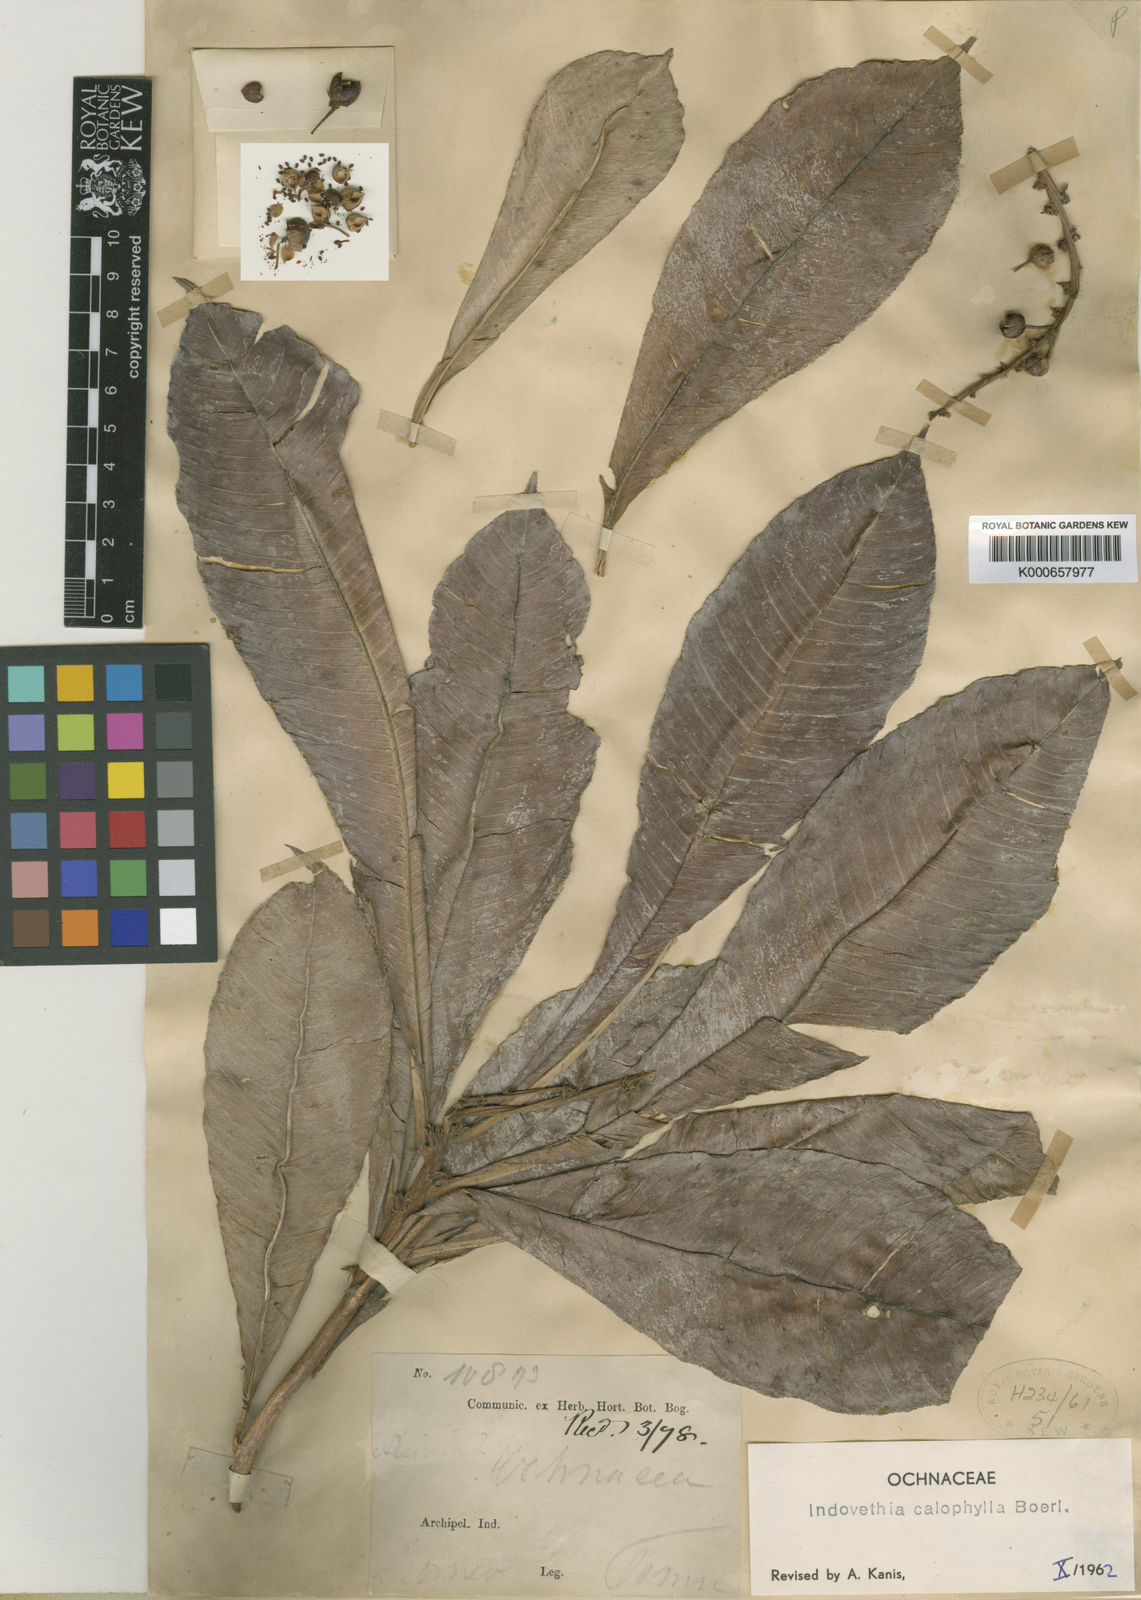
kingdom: Plantae
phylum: Tracheophyta
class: Magnoliopsida
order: Malpighiales
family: Ochnaceae
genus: Indovethia
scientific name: Indovethia calophylla
